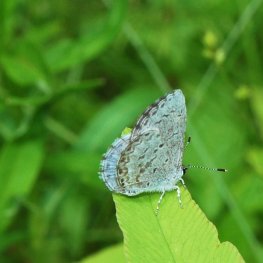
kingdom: Animalia
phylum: Arthropoda
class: Insecta
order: Lepidoptera
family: Lycaenidae
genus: Celastrina
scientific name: Celastrina lucia
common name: Northern Spring Azure
